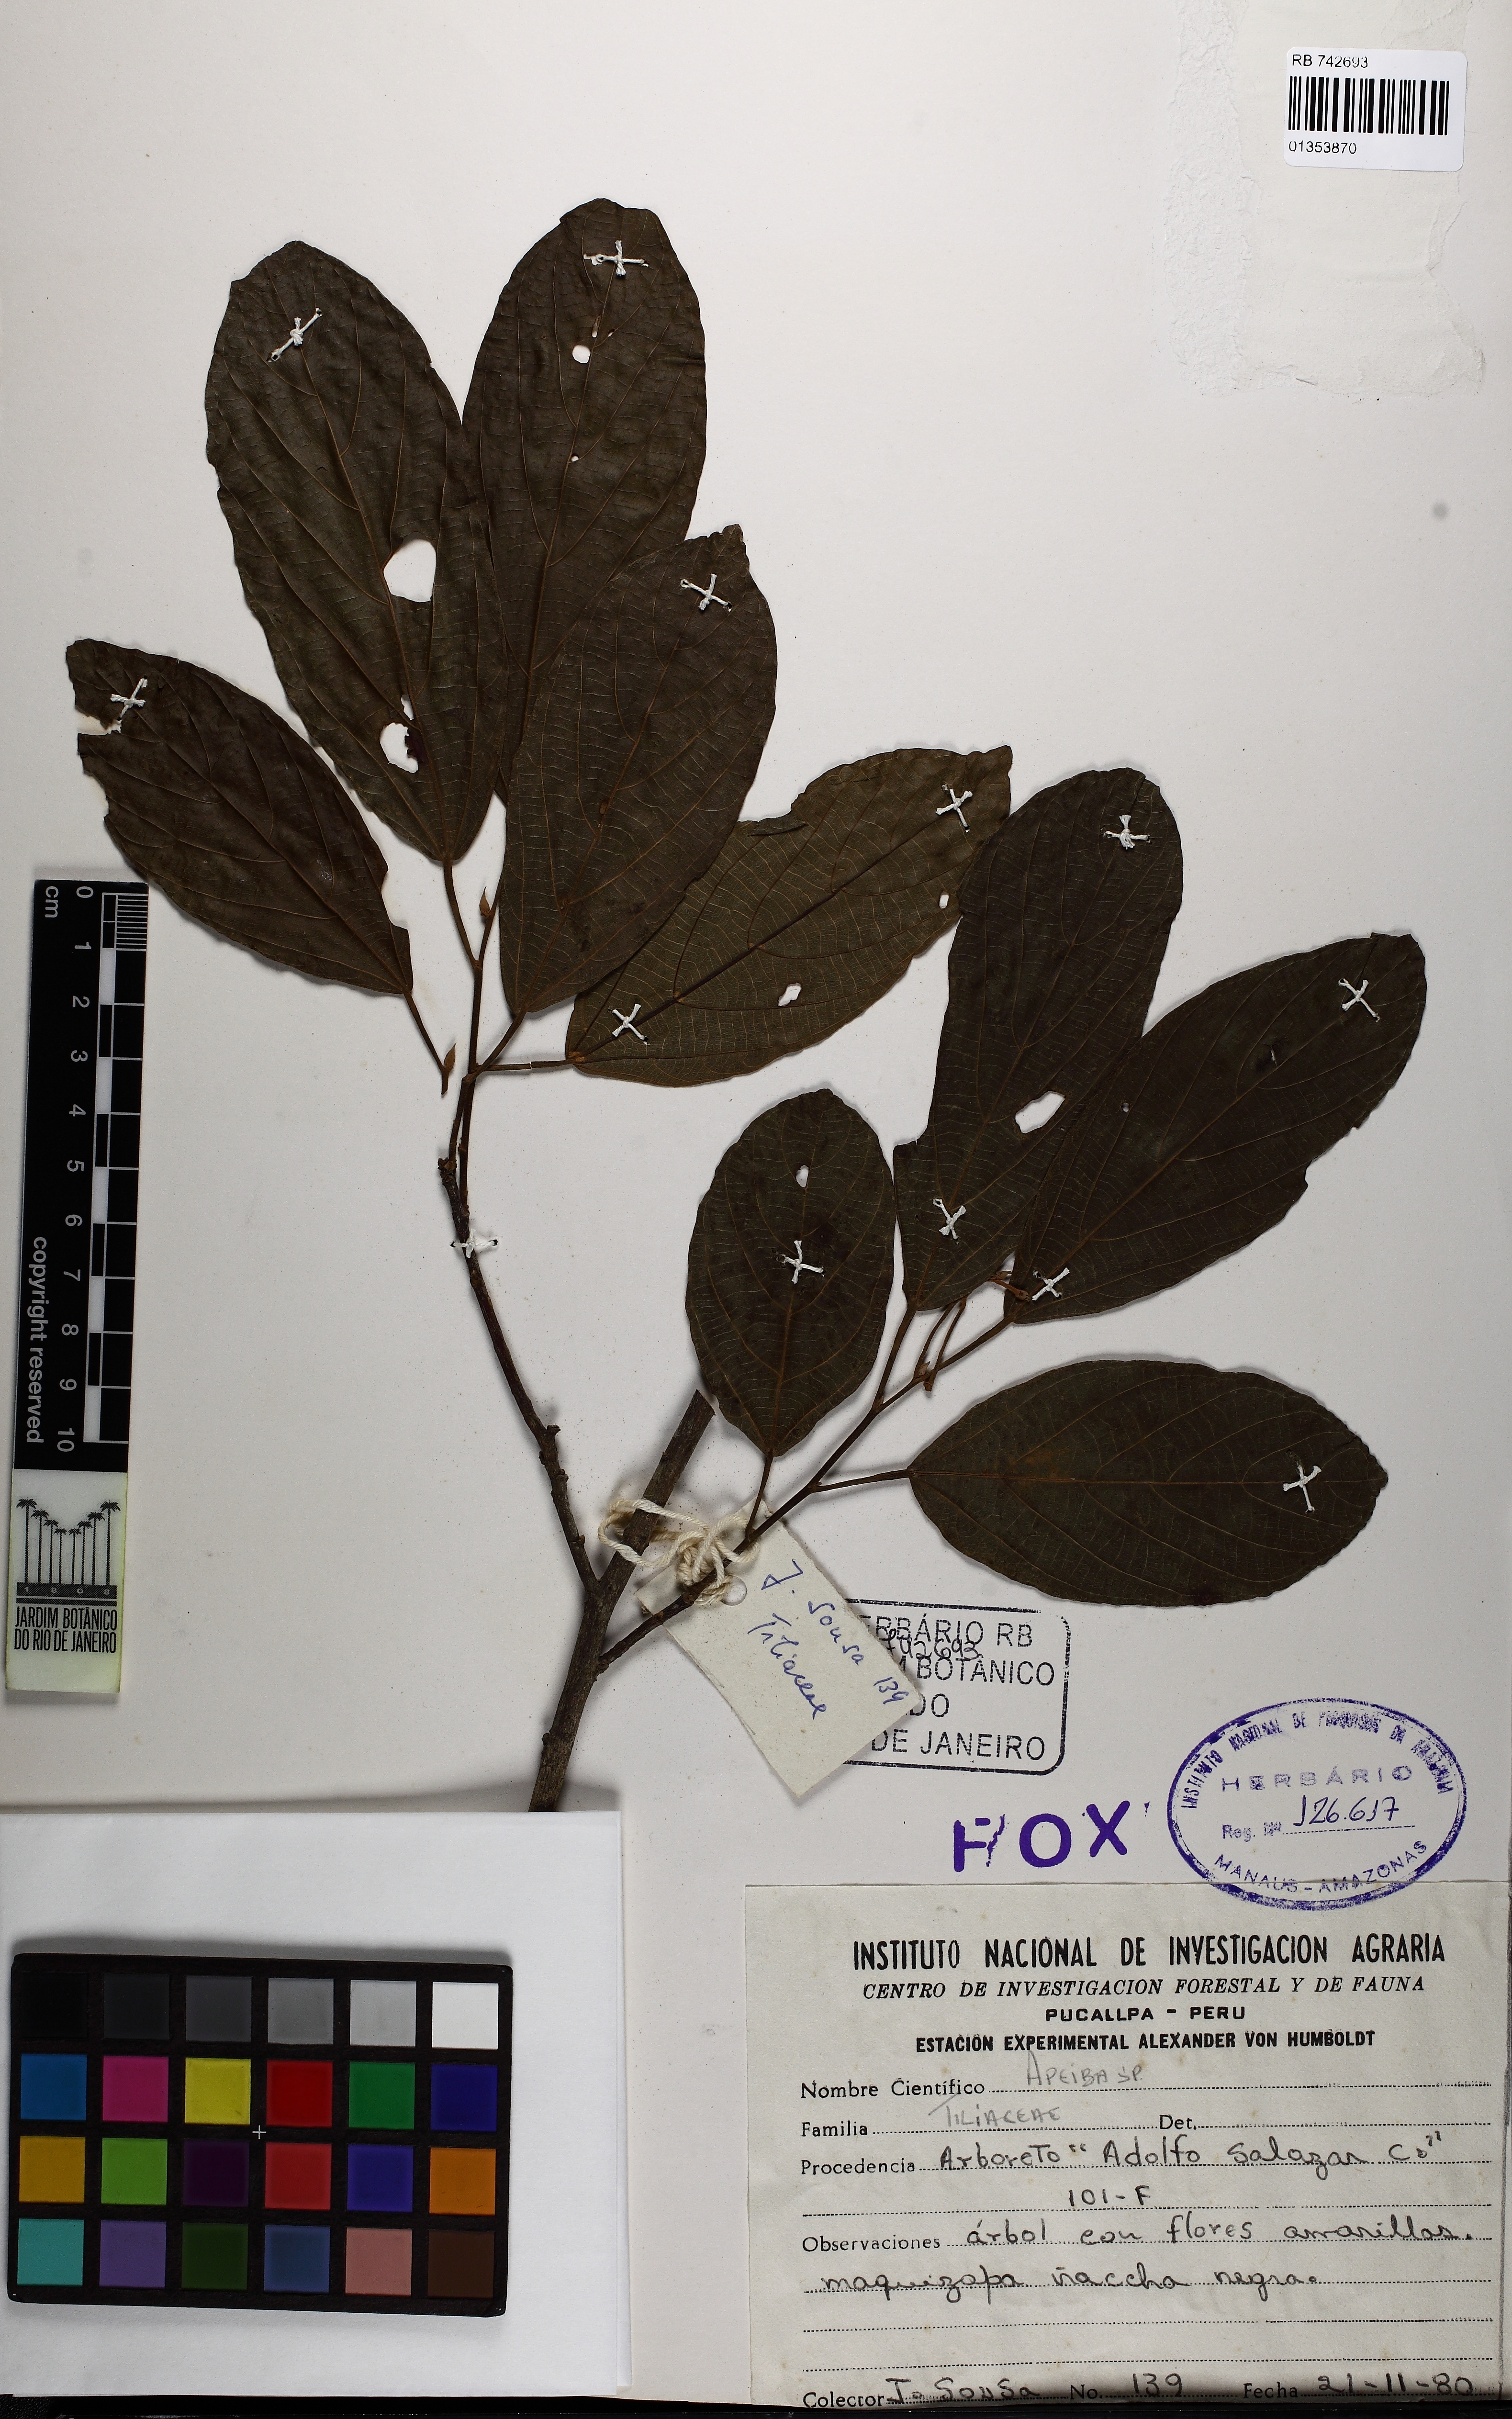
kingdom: Plantae
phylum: Tracheophyta
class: Magnoliopsida
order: Malvales
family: Malvaceae
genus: Apeiba
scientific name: Apeiba membranacea
